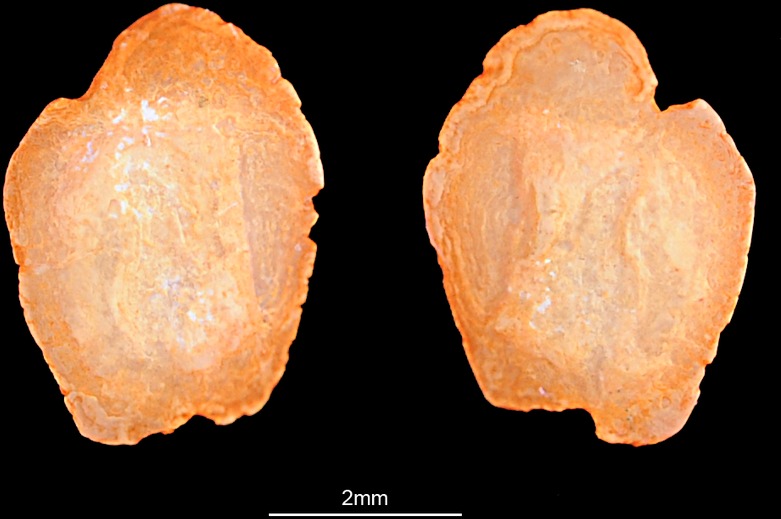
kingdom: Animalia
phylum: Chordata
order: Perciformes
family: Gobiidae
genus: Gobius
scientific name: Gobius niger
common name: Black goby
